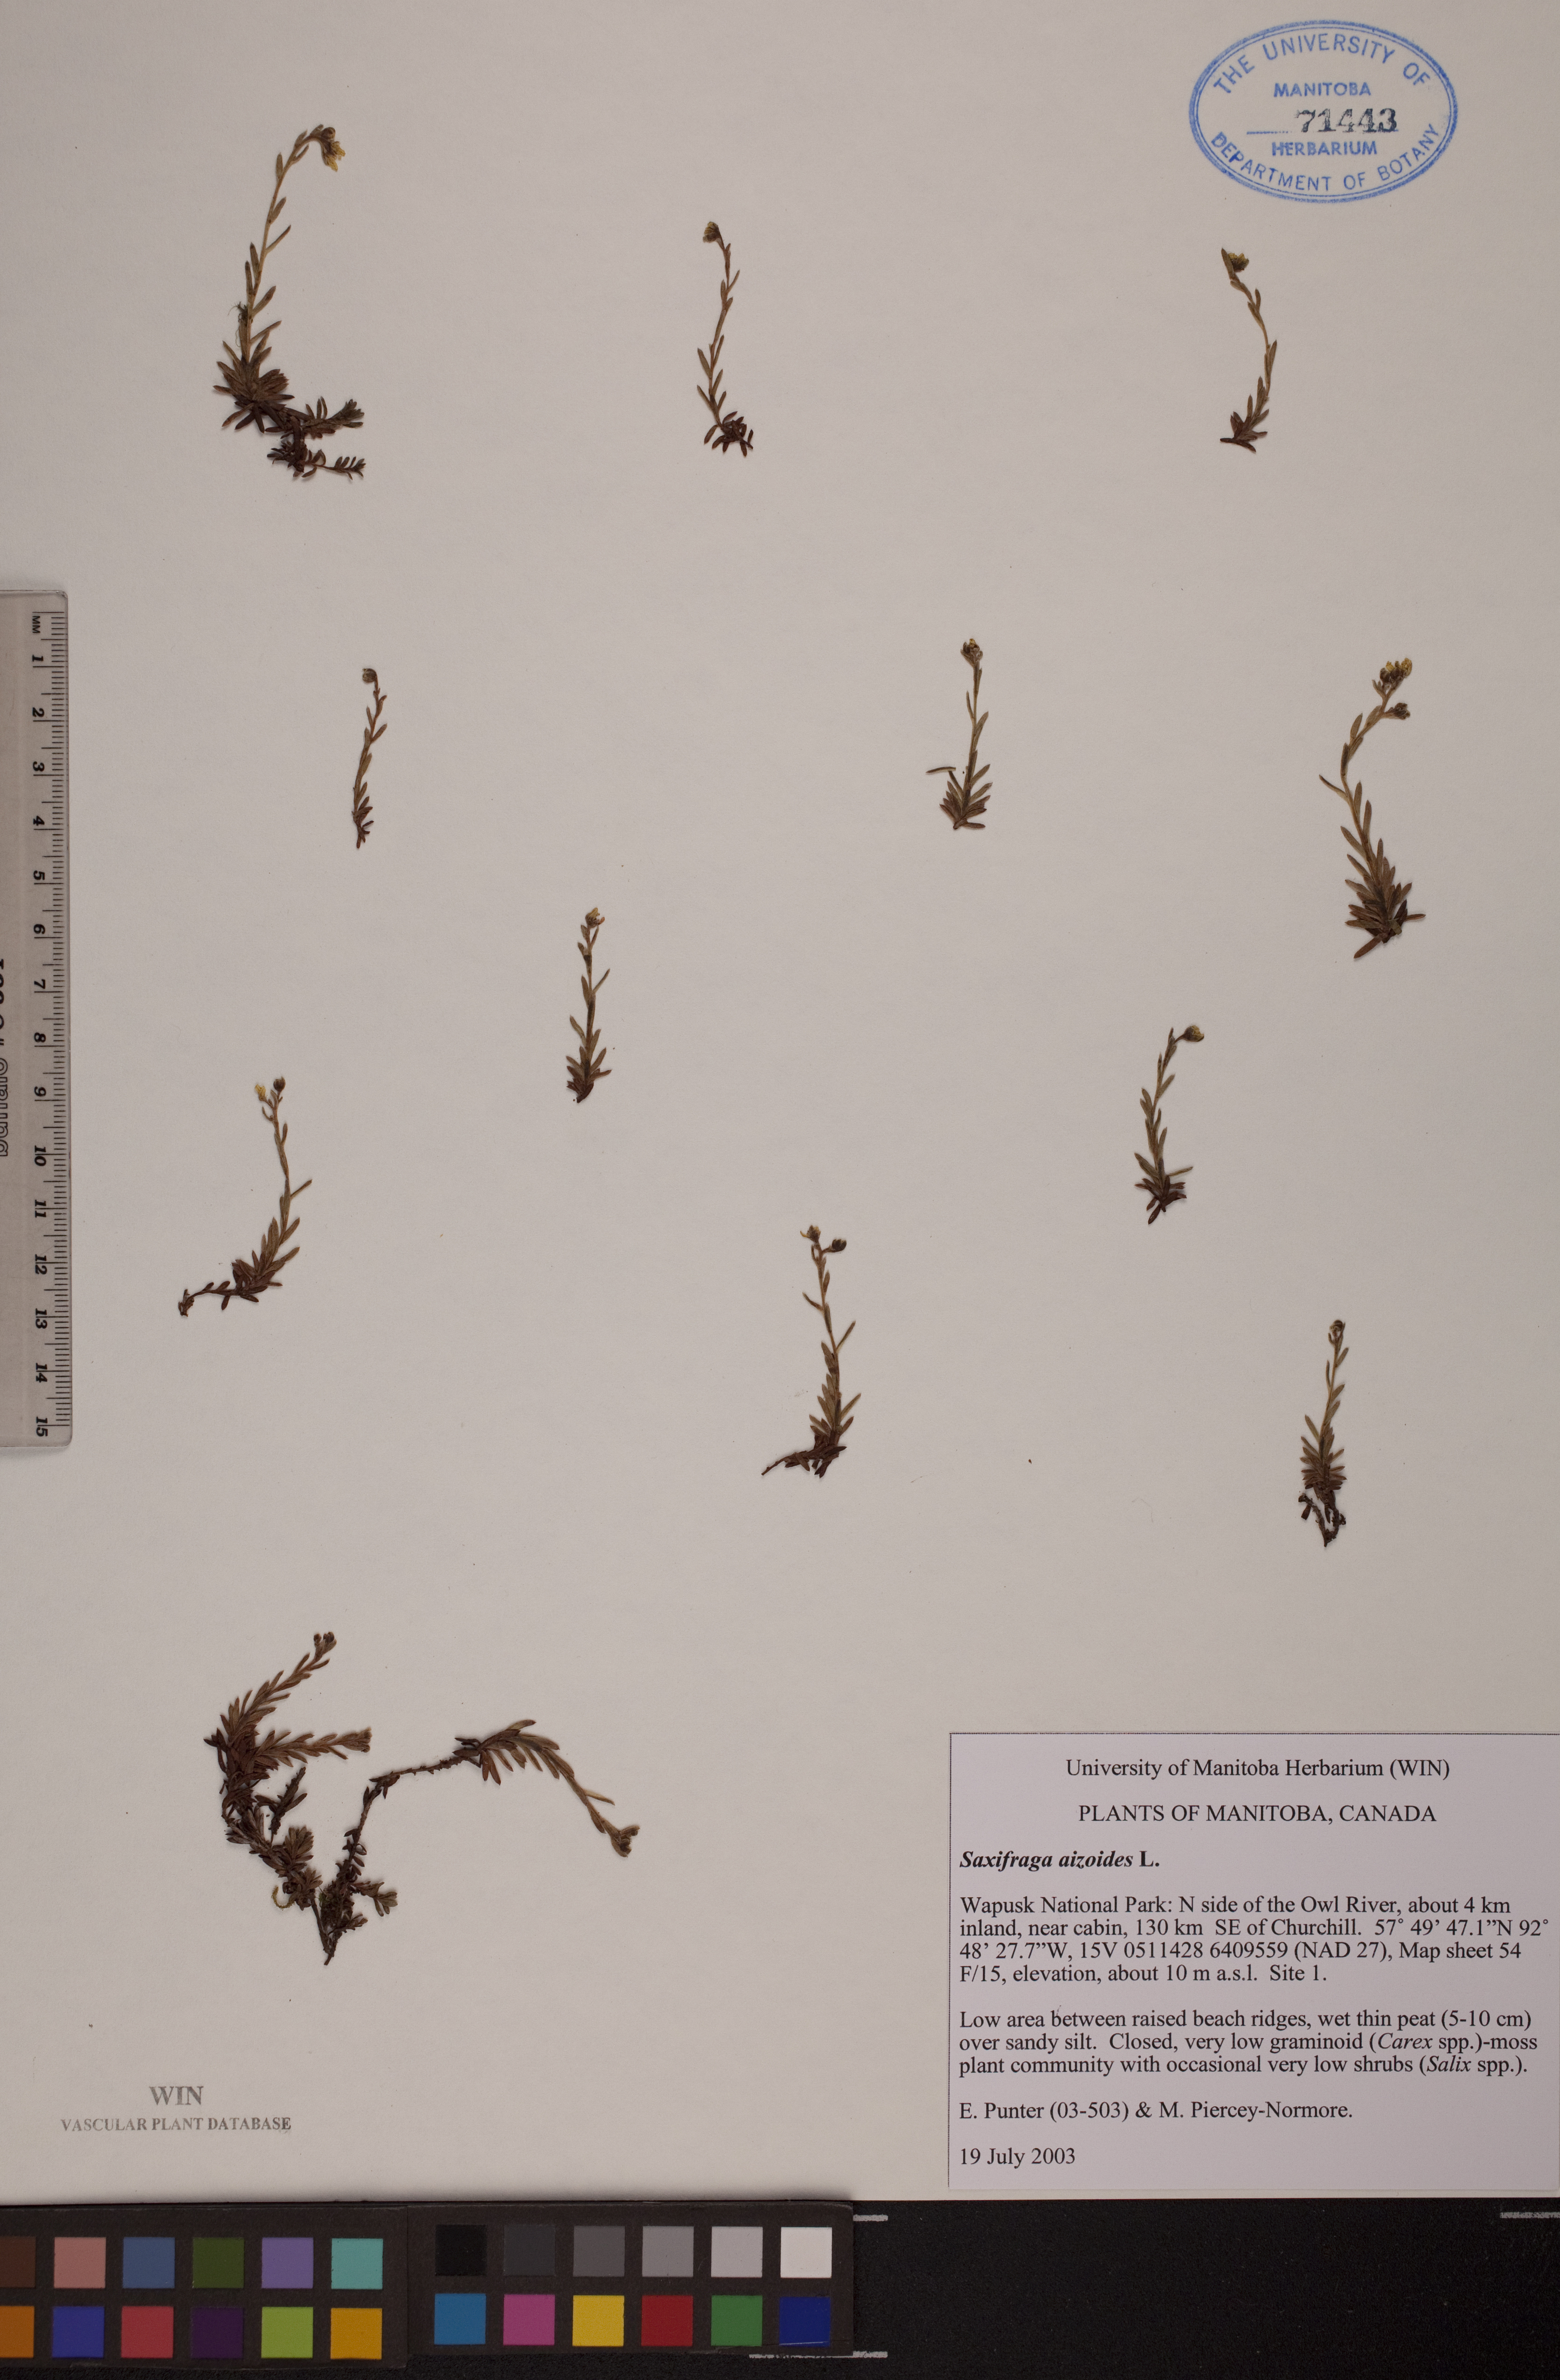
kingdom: Plantae
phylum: Tracheophyta
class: Magnoliopsida
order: Saxifragales
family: Saxifragaceae
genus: Saxifraga
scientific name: Saxifraga aizoides
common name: Yellow mountain saxifrage
